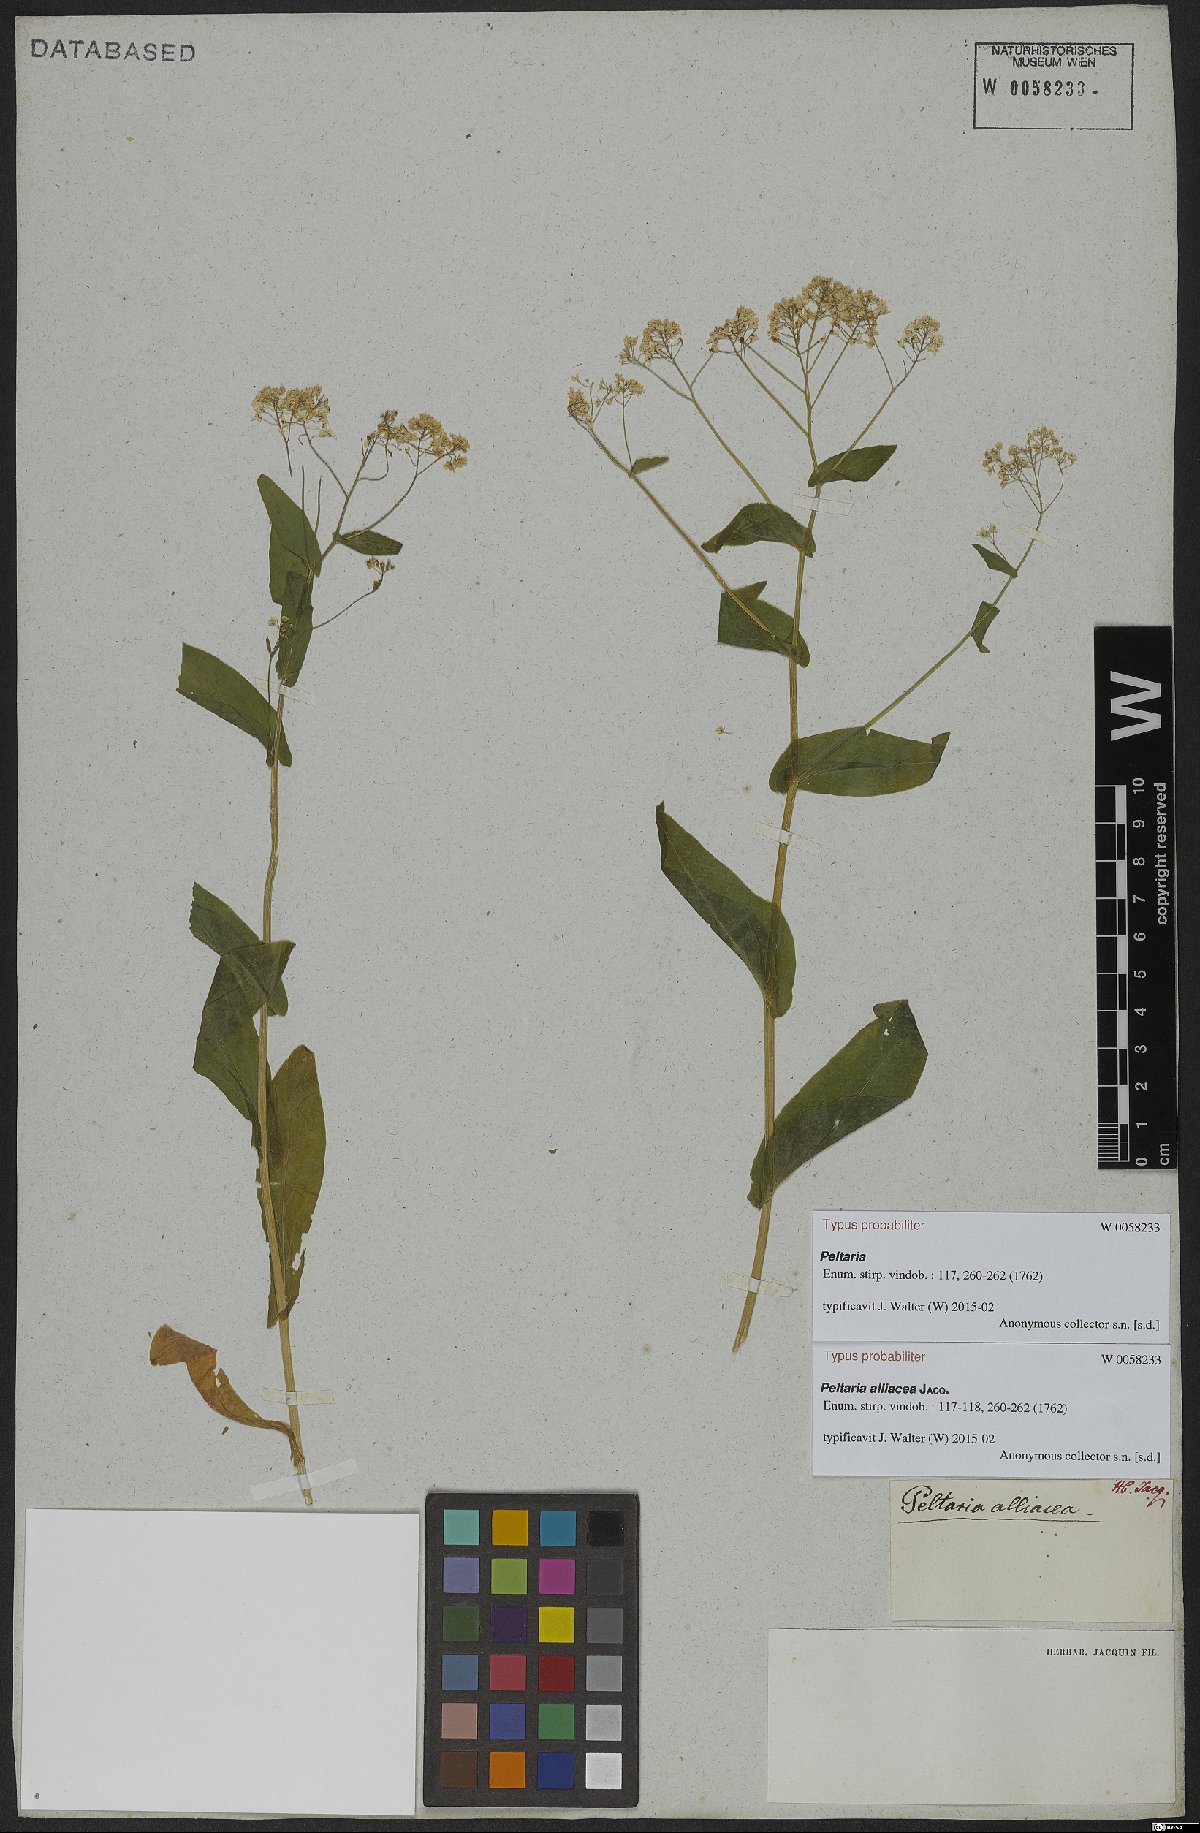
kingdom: Plantae
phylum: Tracheophyta
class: Magnoliopsida
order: Brassicales
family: Brassicaceae
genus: Peltaria
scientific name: Peltaria alliacea
